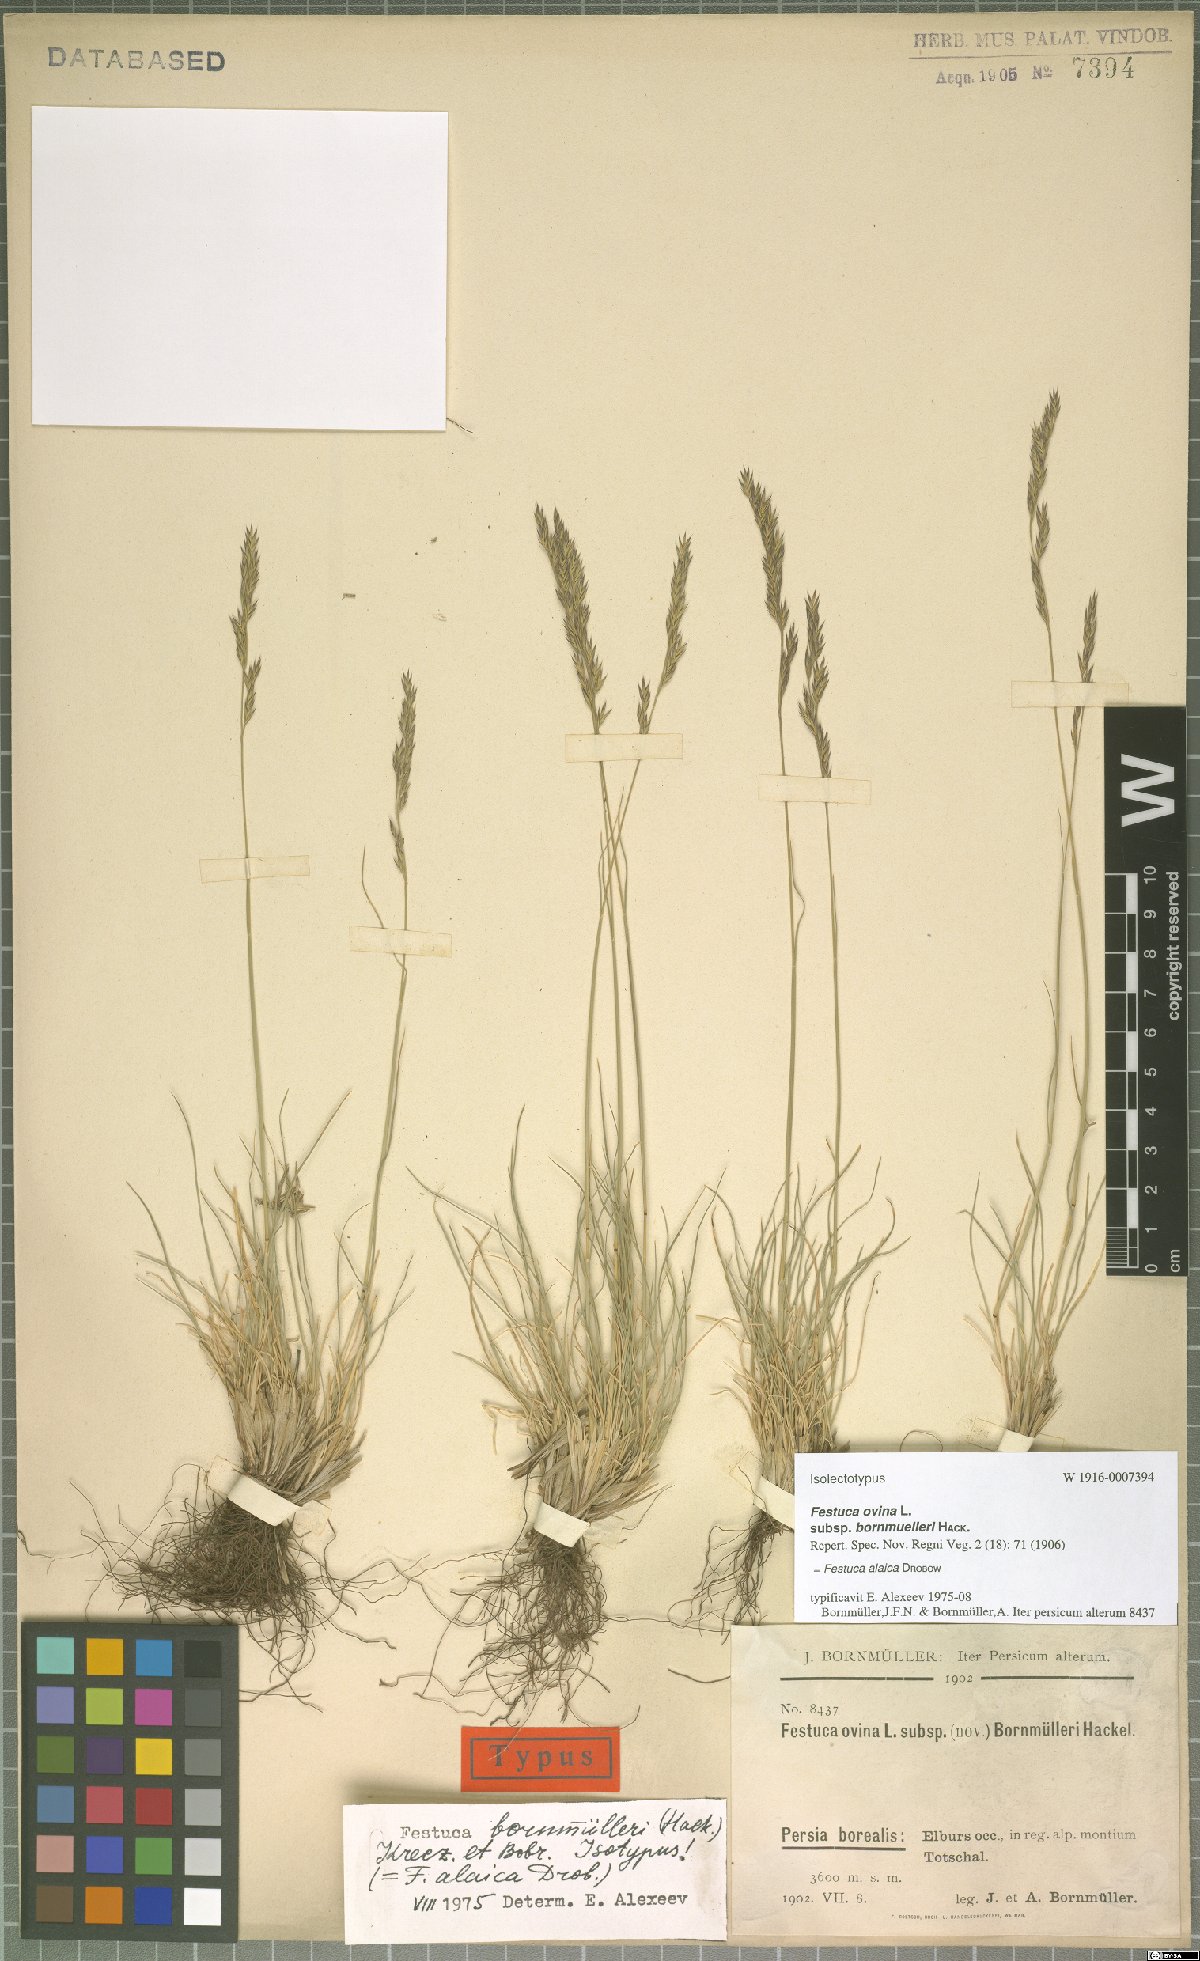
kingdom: Plantae
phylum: Tracheophyta
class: Liliopsida
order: Poales
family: Poaceae
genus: Festuca
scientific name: Festuca alaica
